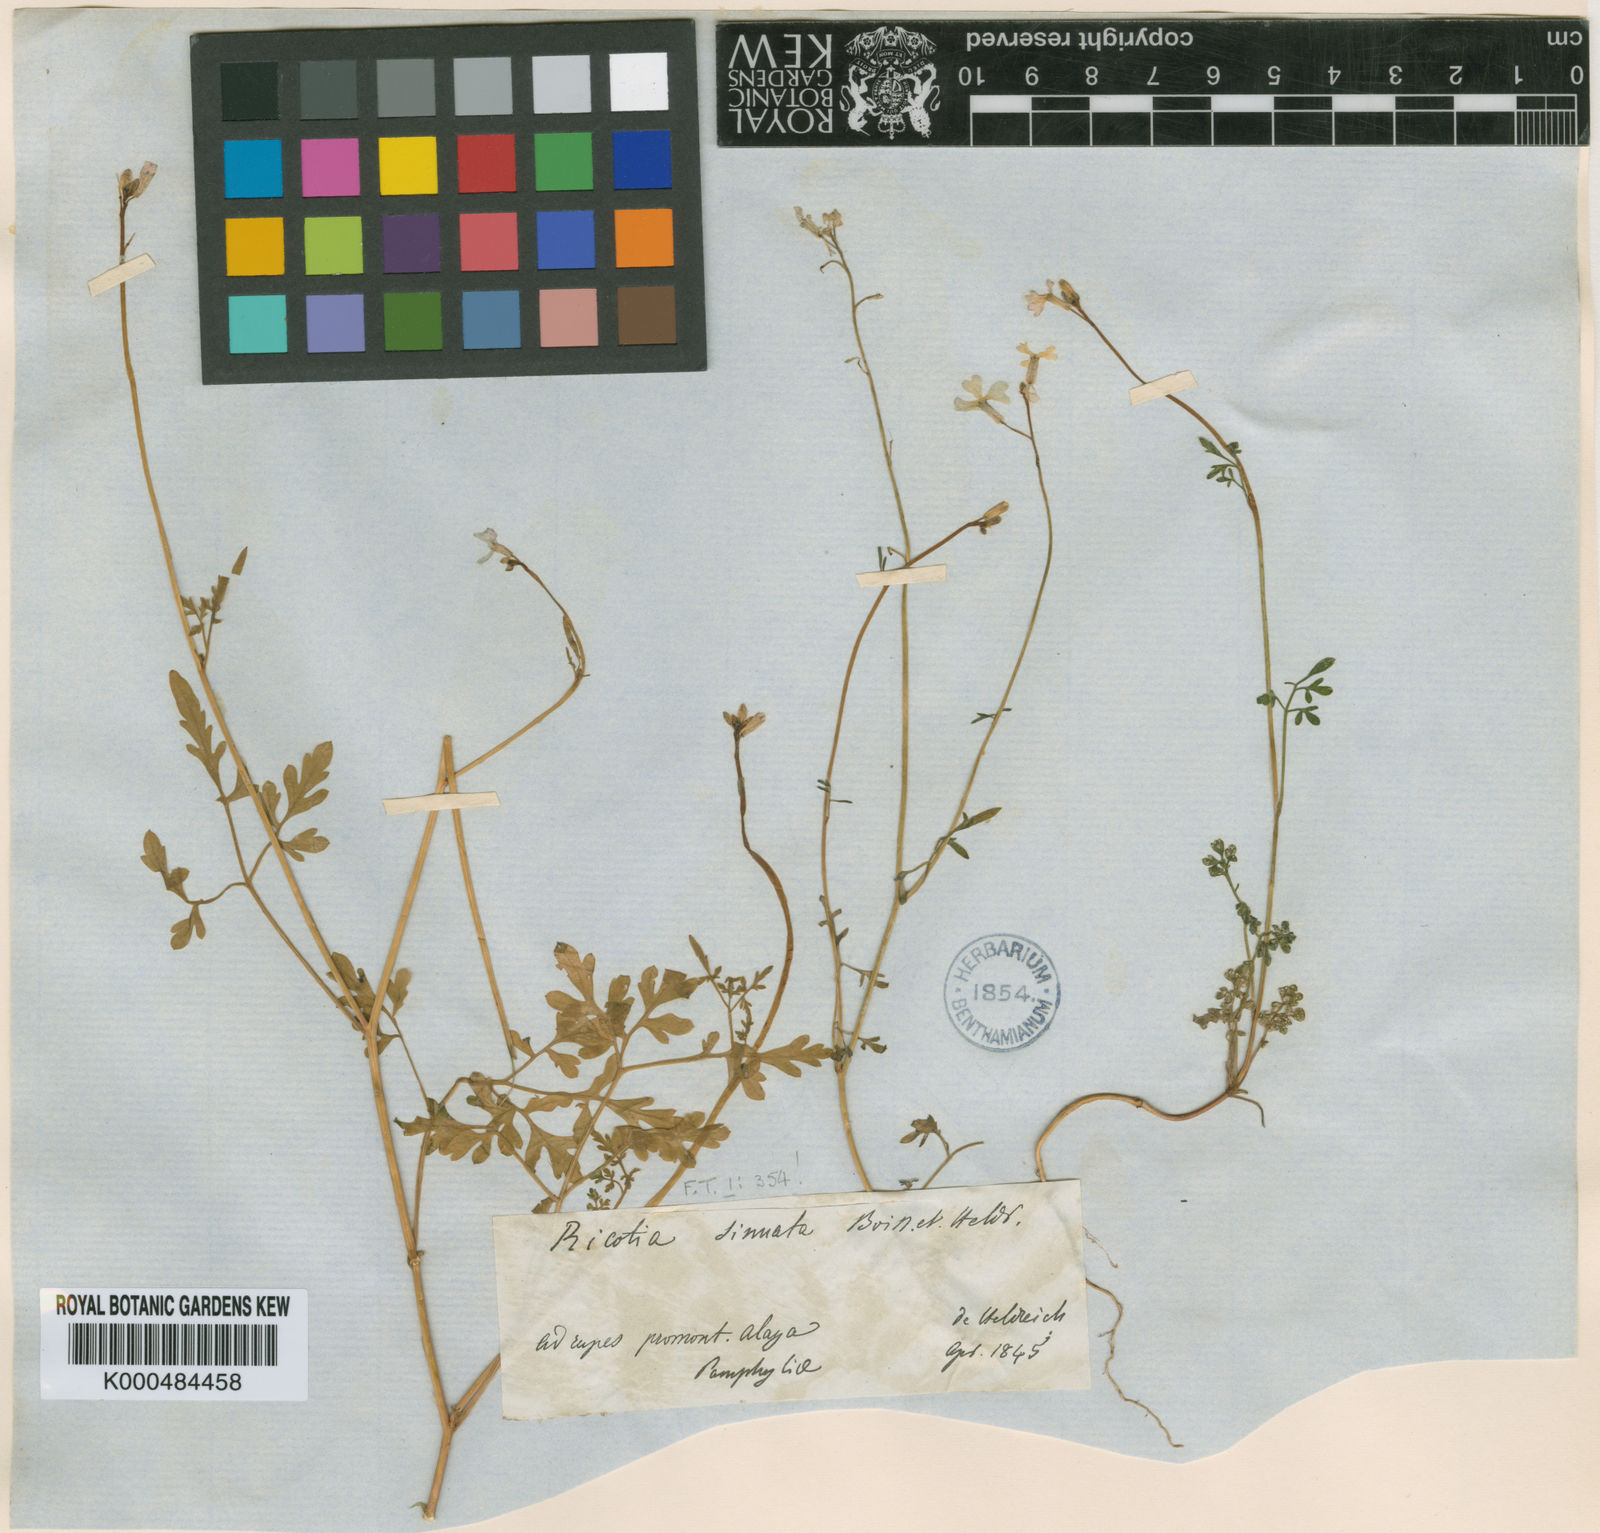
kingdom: Plantae
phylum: Tracheophyta
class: Magnoliopsida
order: Brassicales
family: Brassicaceae
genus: Ricotia
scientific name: Ricotia sinuata
